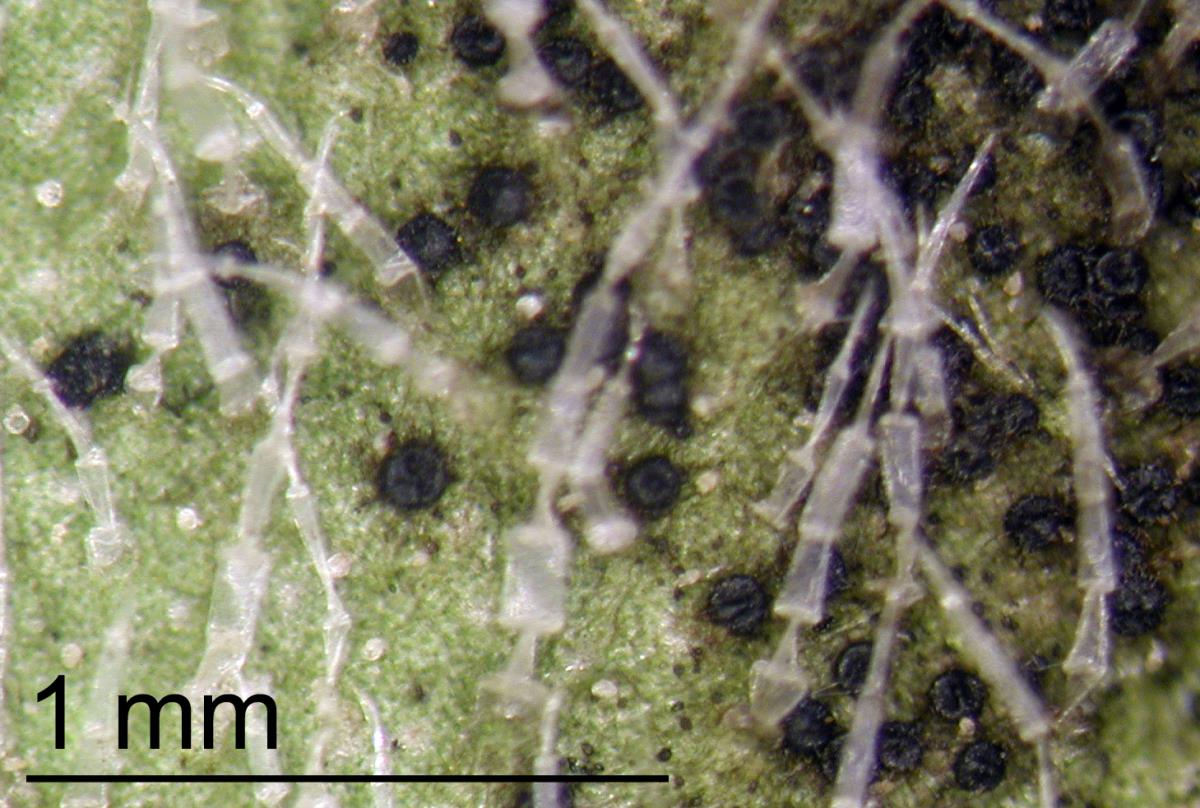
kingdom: Fungi
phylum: Ascomycota
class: Dothideomycetes
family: Pseudoperisporiaceae
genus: Wentiomyces
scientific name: Wentiomyces melioloides
